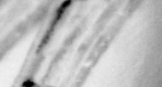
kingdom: Animalia
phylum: Chordata
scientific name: Chordata
